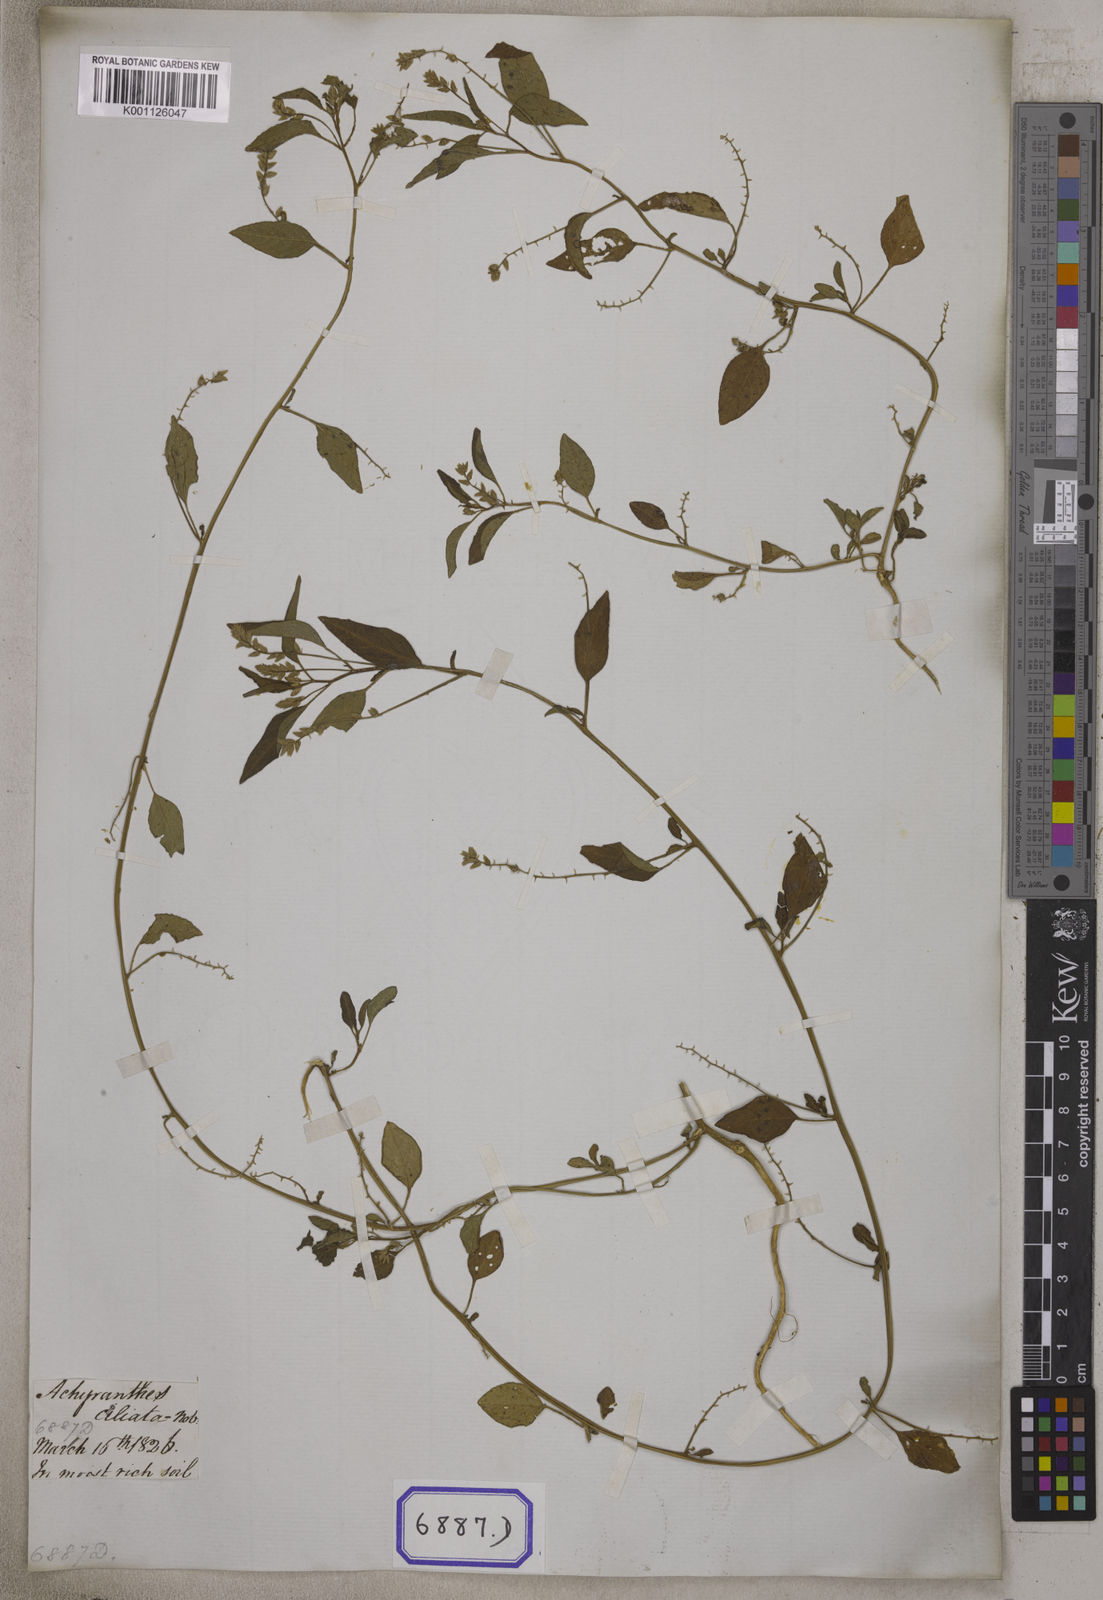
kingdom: Plantae
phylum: Tracheophyta
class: Magnoliopsida
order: Caryophyllales
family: Amaranthaceae
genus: Digera
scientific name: Digera muricata
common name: False amaranth
